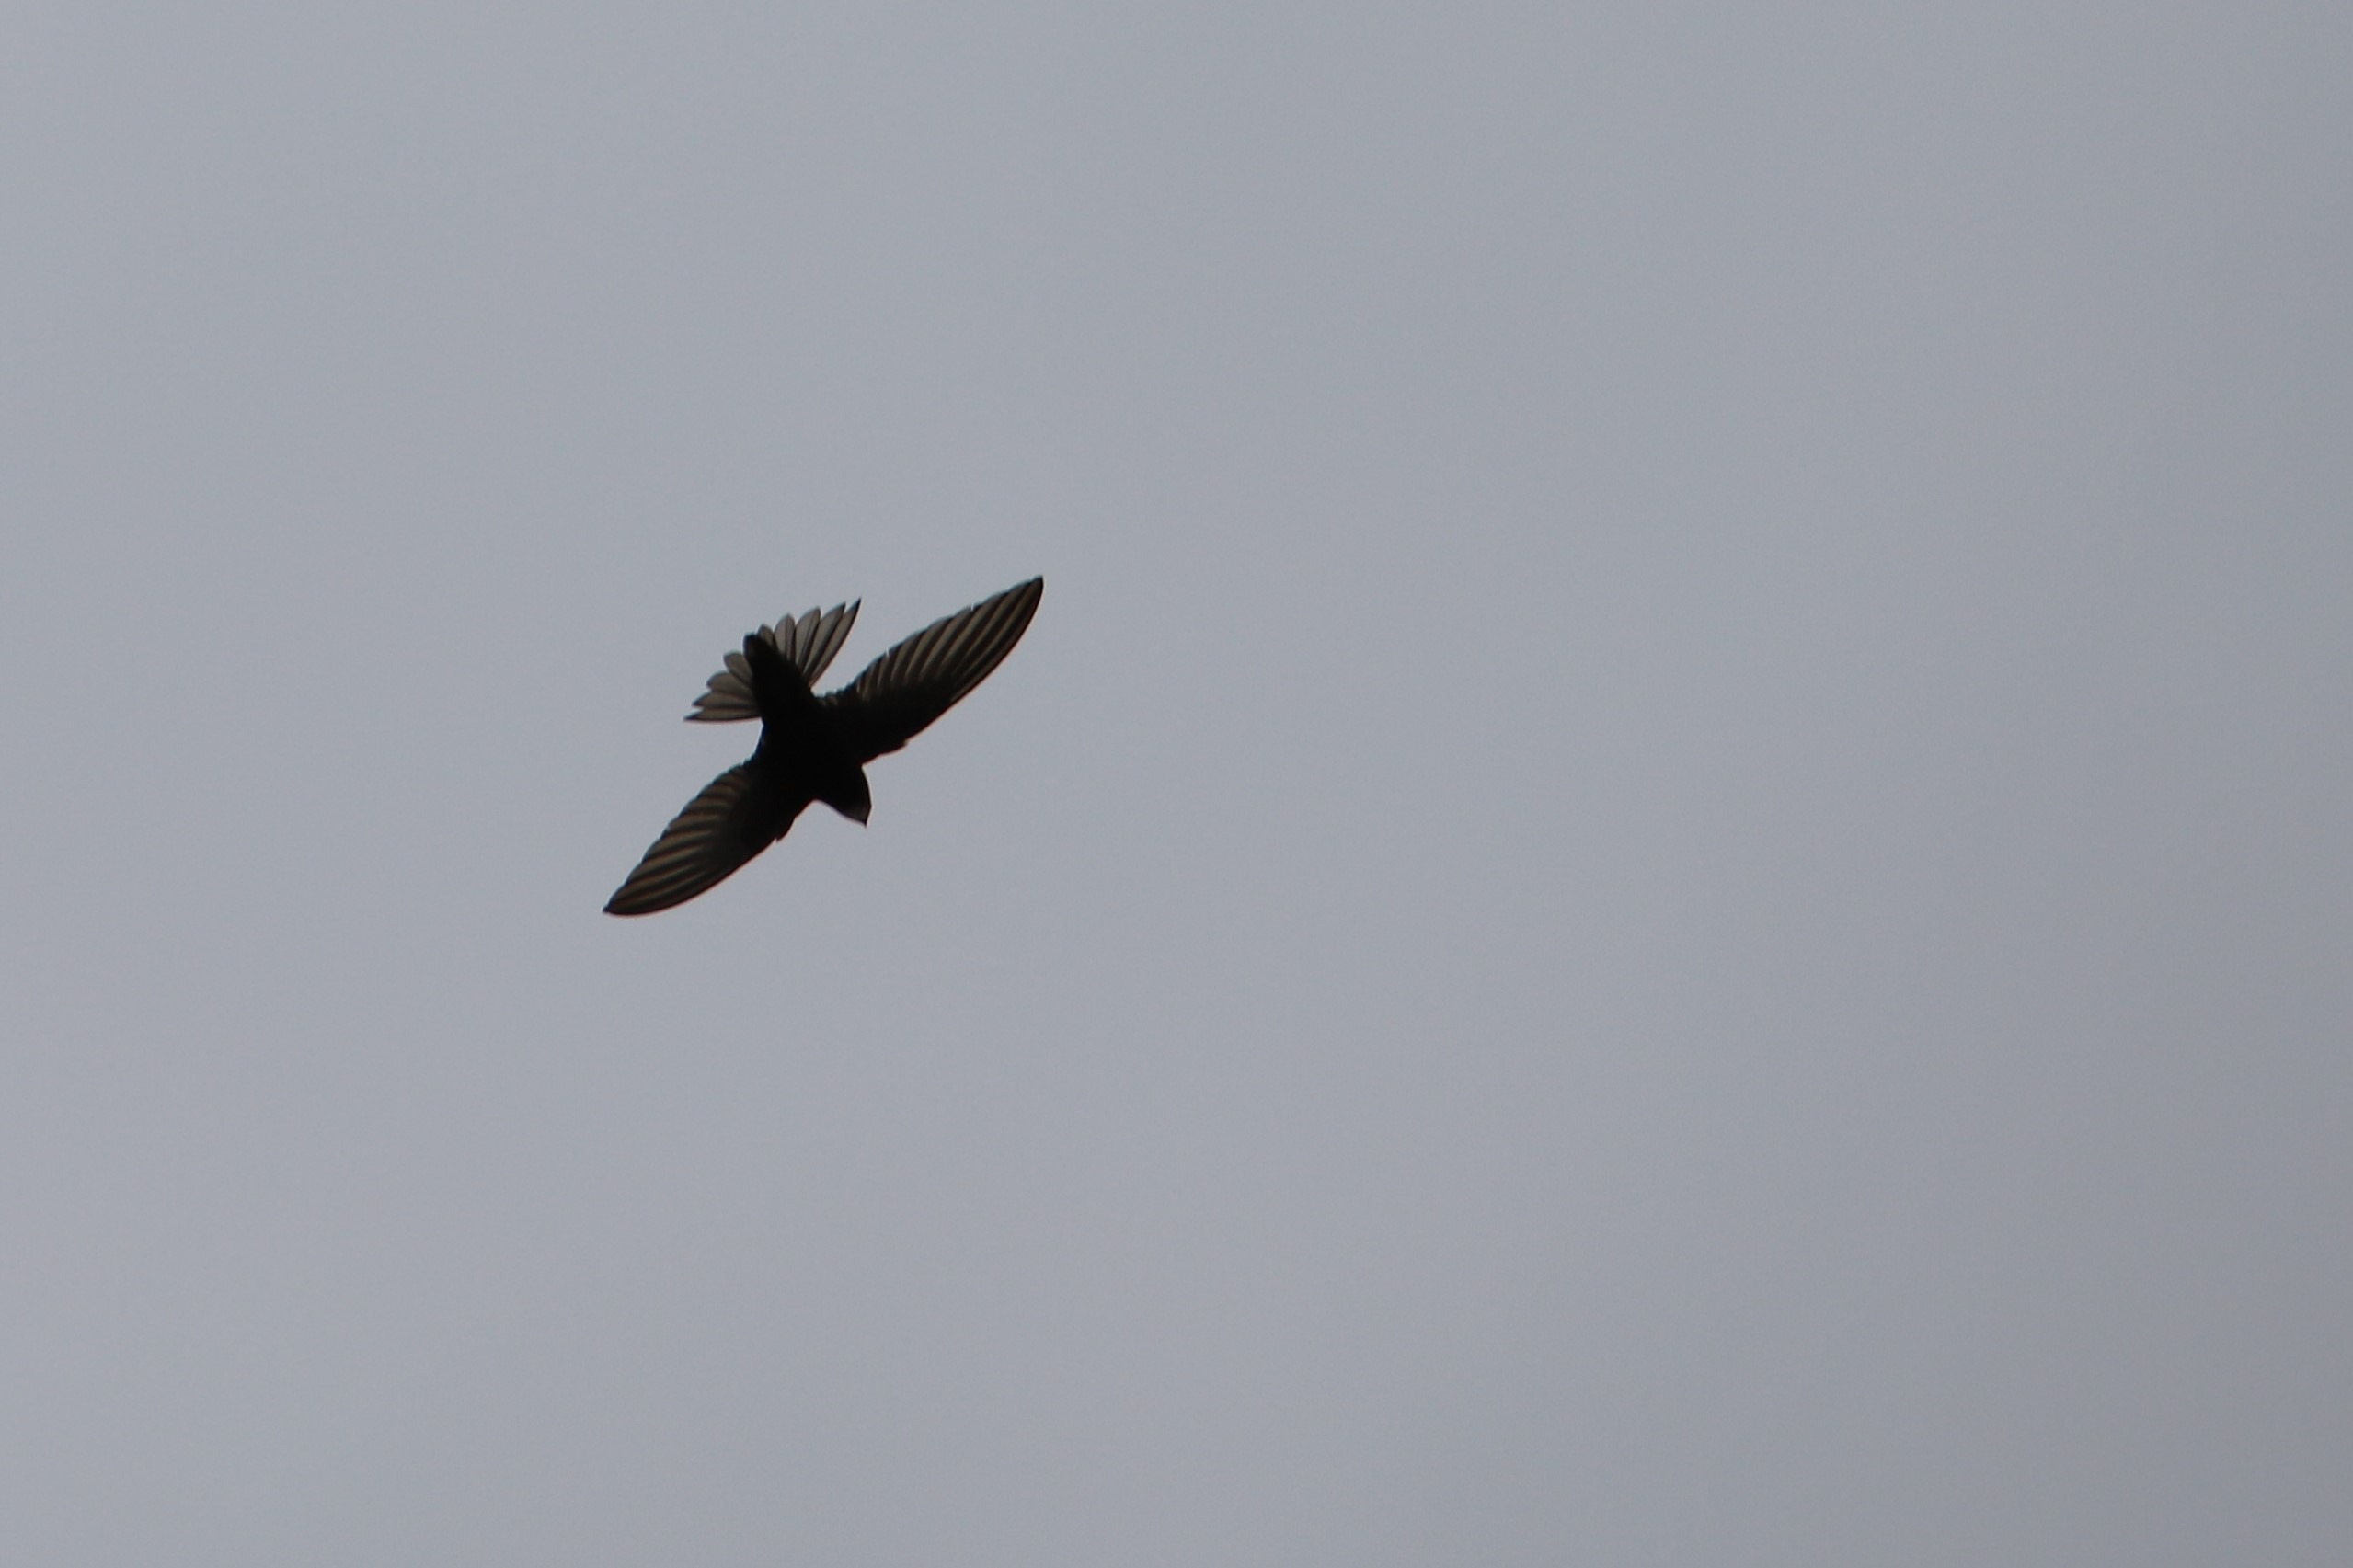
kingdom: Animalia
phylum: Chordata
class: Aves
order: Apodiformes
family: Apodidae
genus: Apus
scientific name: Apus apus
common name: Mursejler
